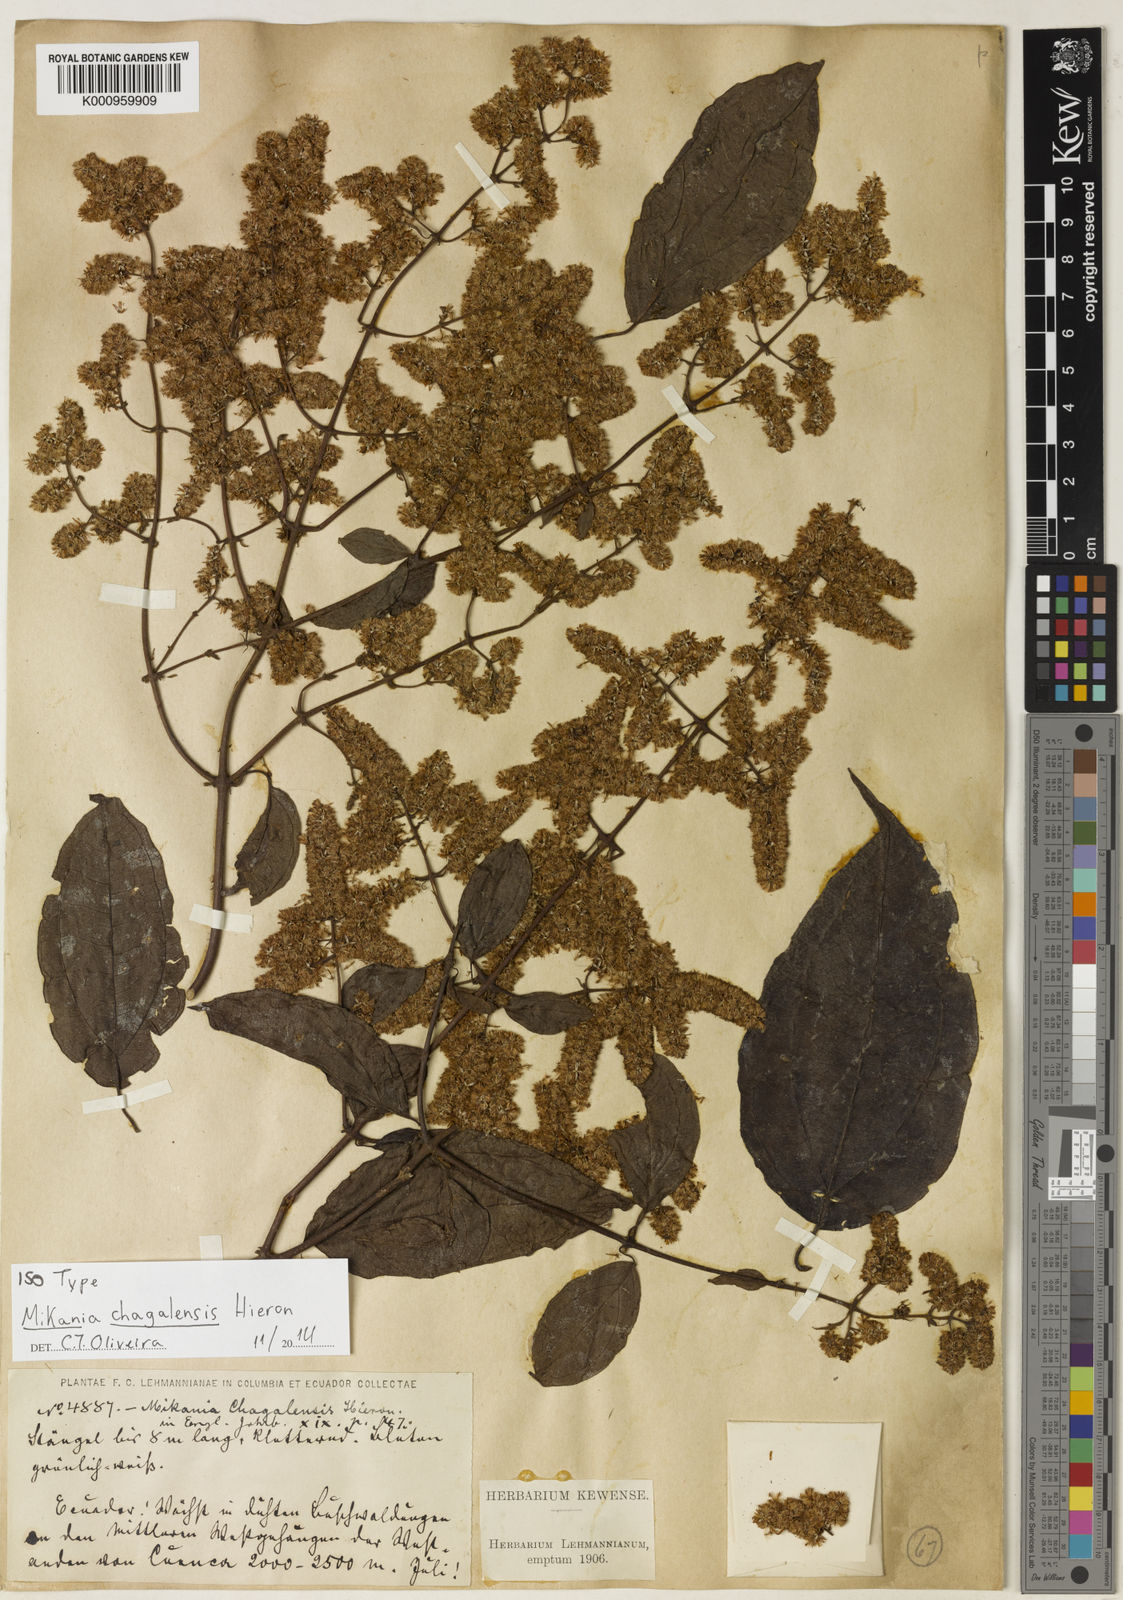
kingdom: Plantae
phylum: Tracheophyta
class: Magnoliopsida
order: Asterales
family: Asteraceae
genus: Mikania
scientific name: Mikania leiostachya
